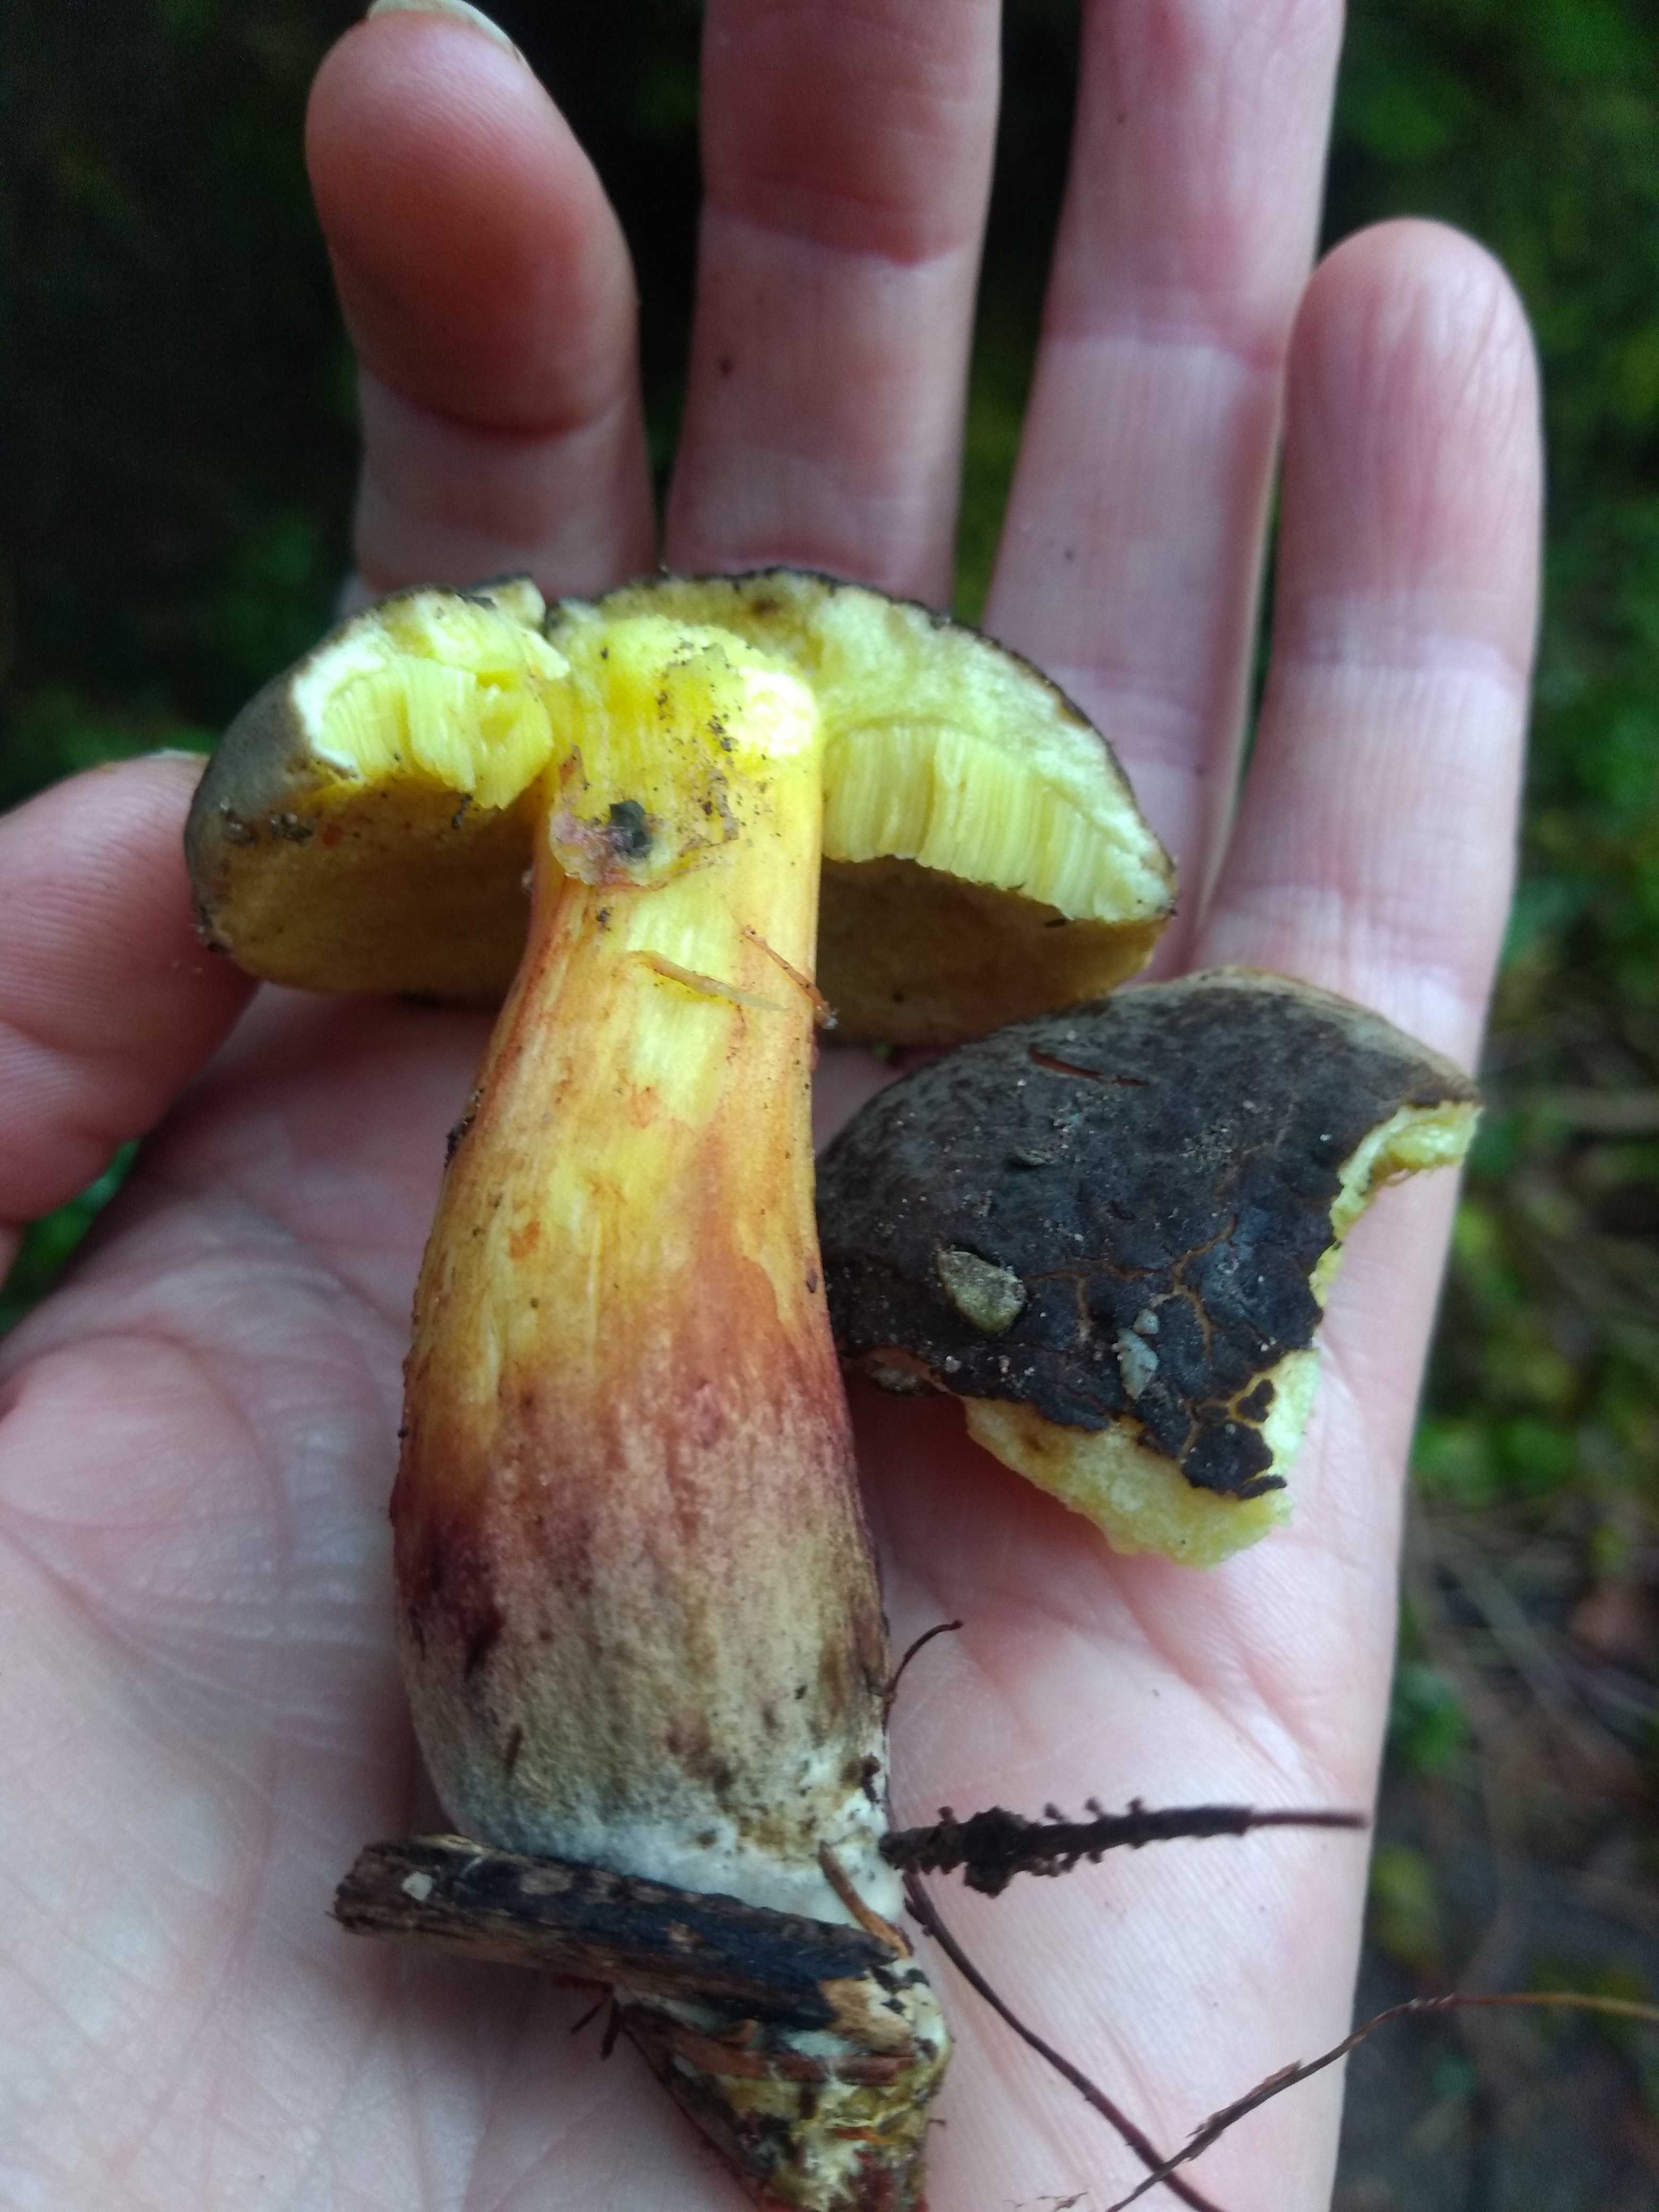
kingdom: Fungi
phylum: Basidiomycota
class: Agaricomycetes
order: Boletales
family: Boletaceae
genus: Xerocomellus
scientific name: Xerocomellus
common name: dværgrørhat
